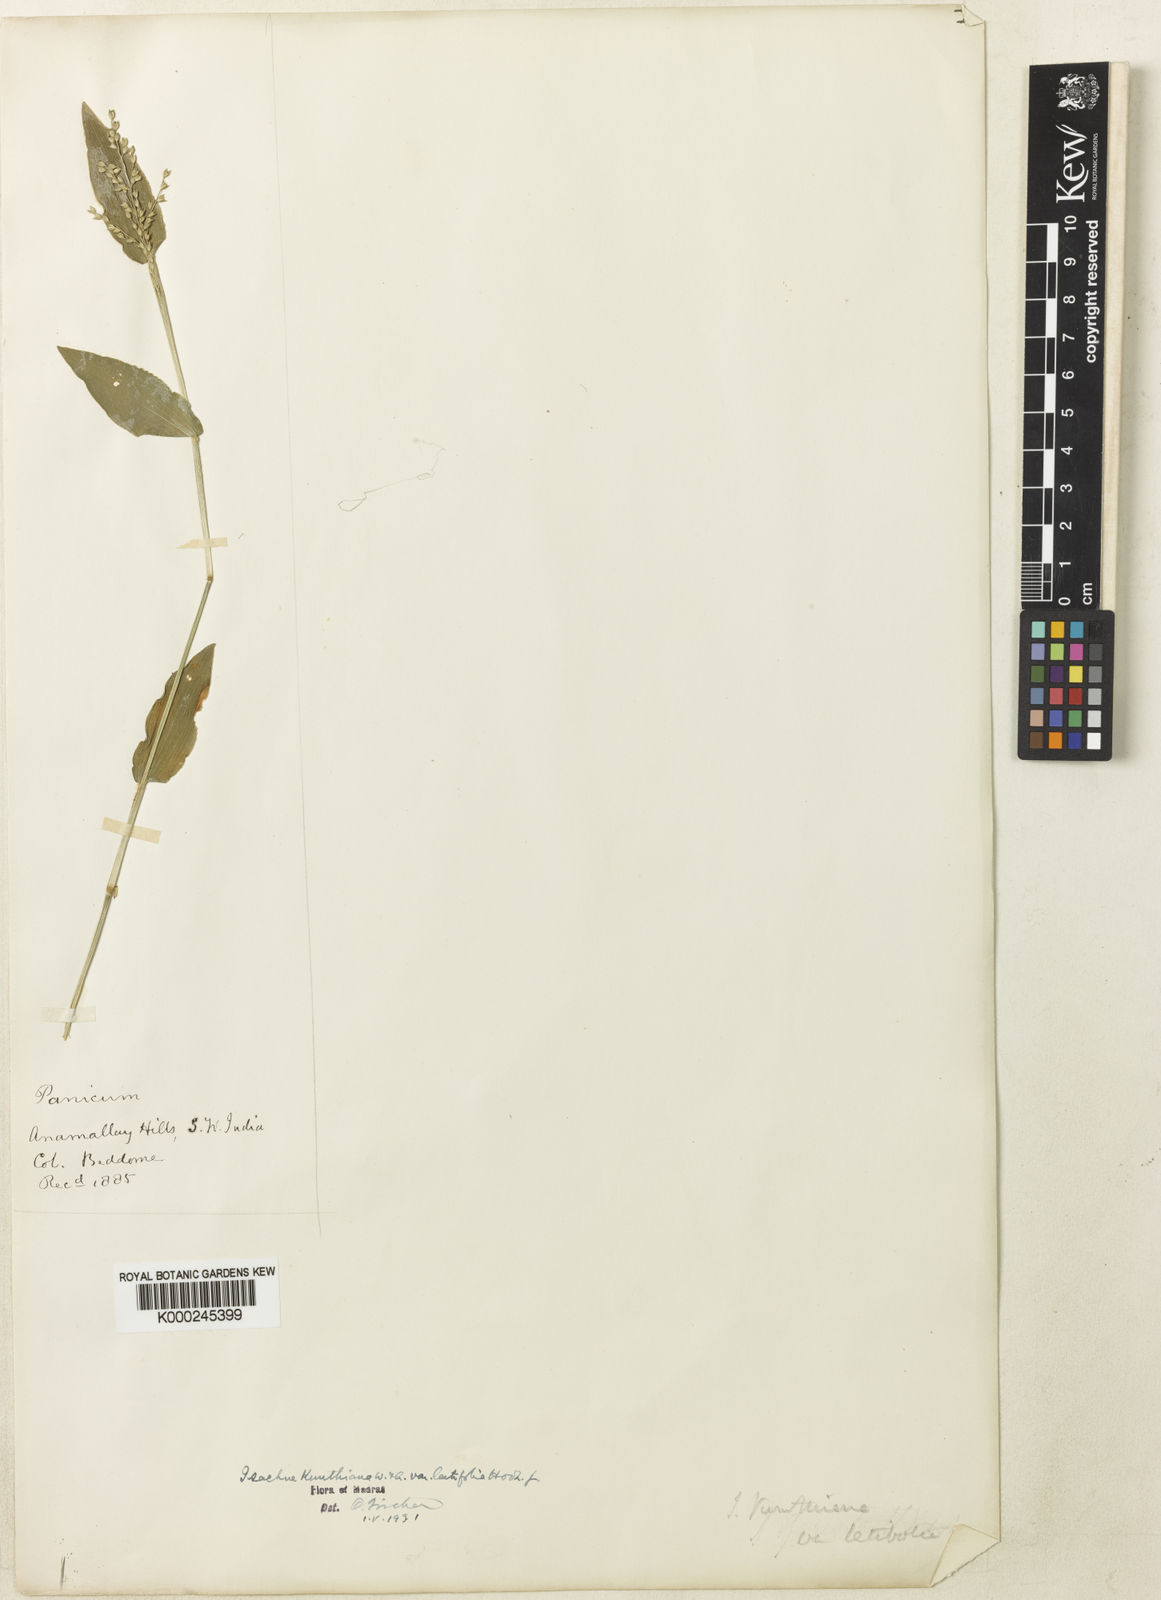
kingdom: Plantae
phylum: Tracheophyta
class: Liliopsida
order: Poales
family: Poaceae
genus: Isachne
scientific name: Isachne kunthiana
